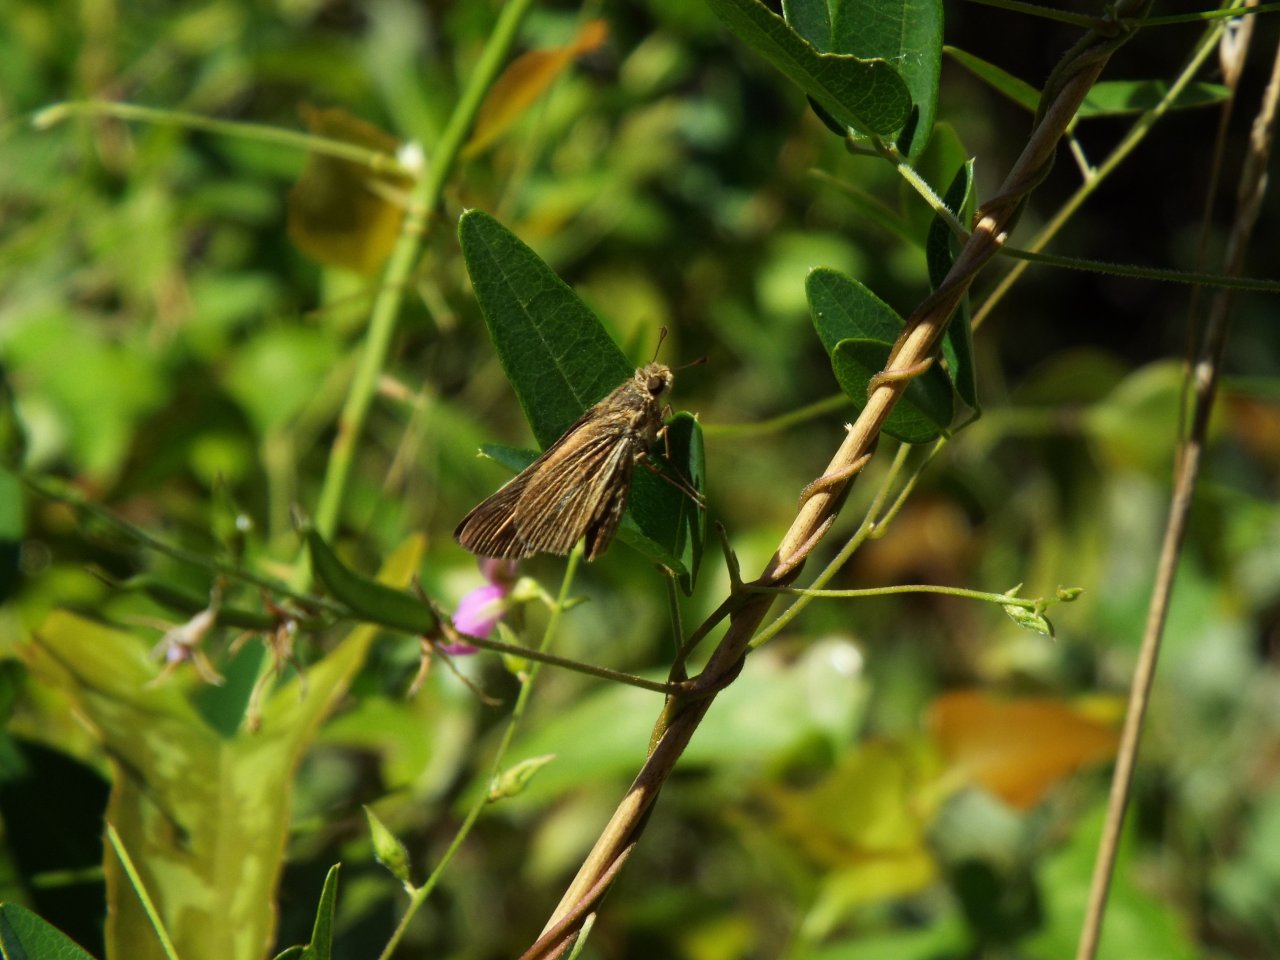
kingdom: Animalia
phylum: Arthropoda
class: Insecta
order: Lepidoptera
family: Hesperiidae
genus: Panoquina
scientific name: Panoquina panoquin
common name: Salt Marsh Skipper
